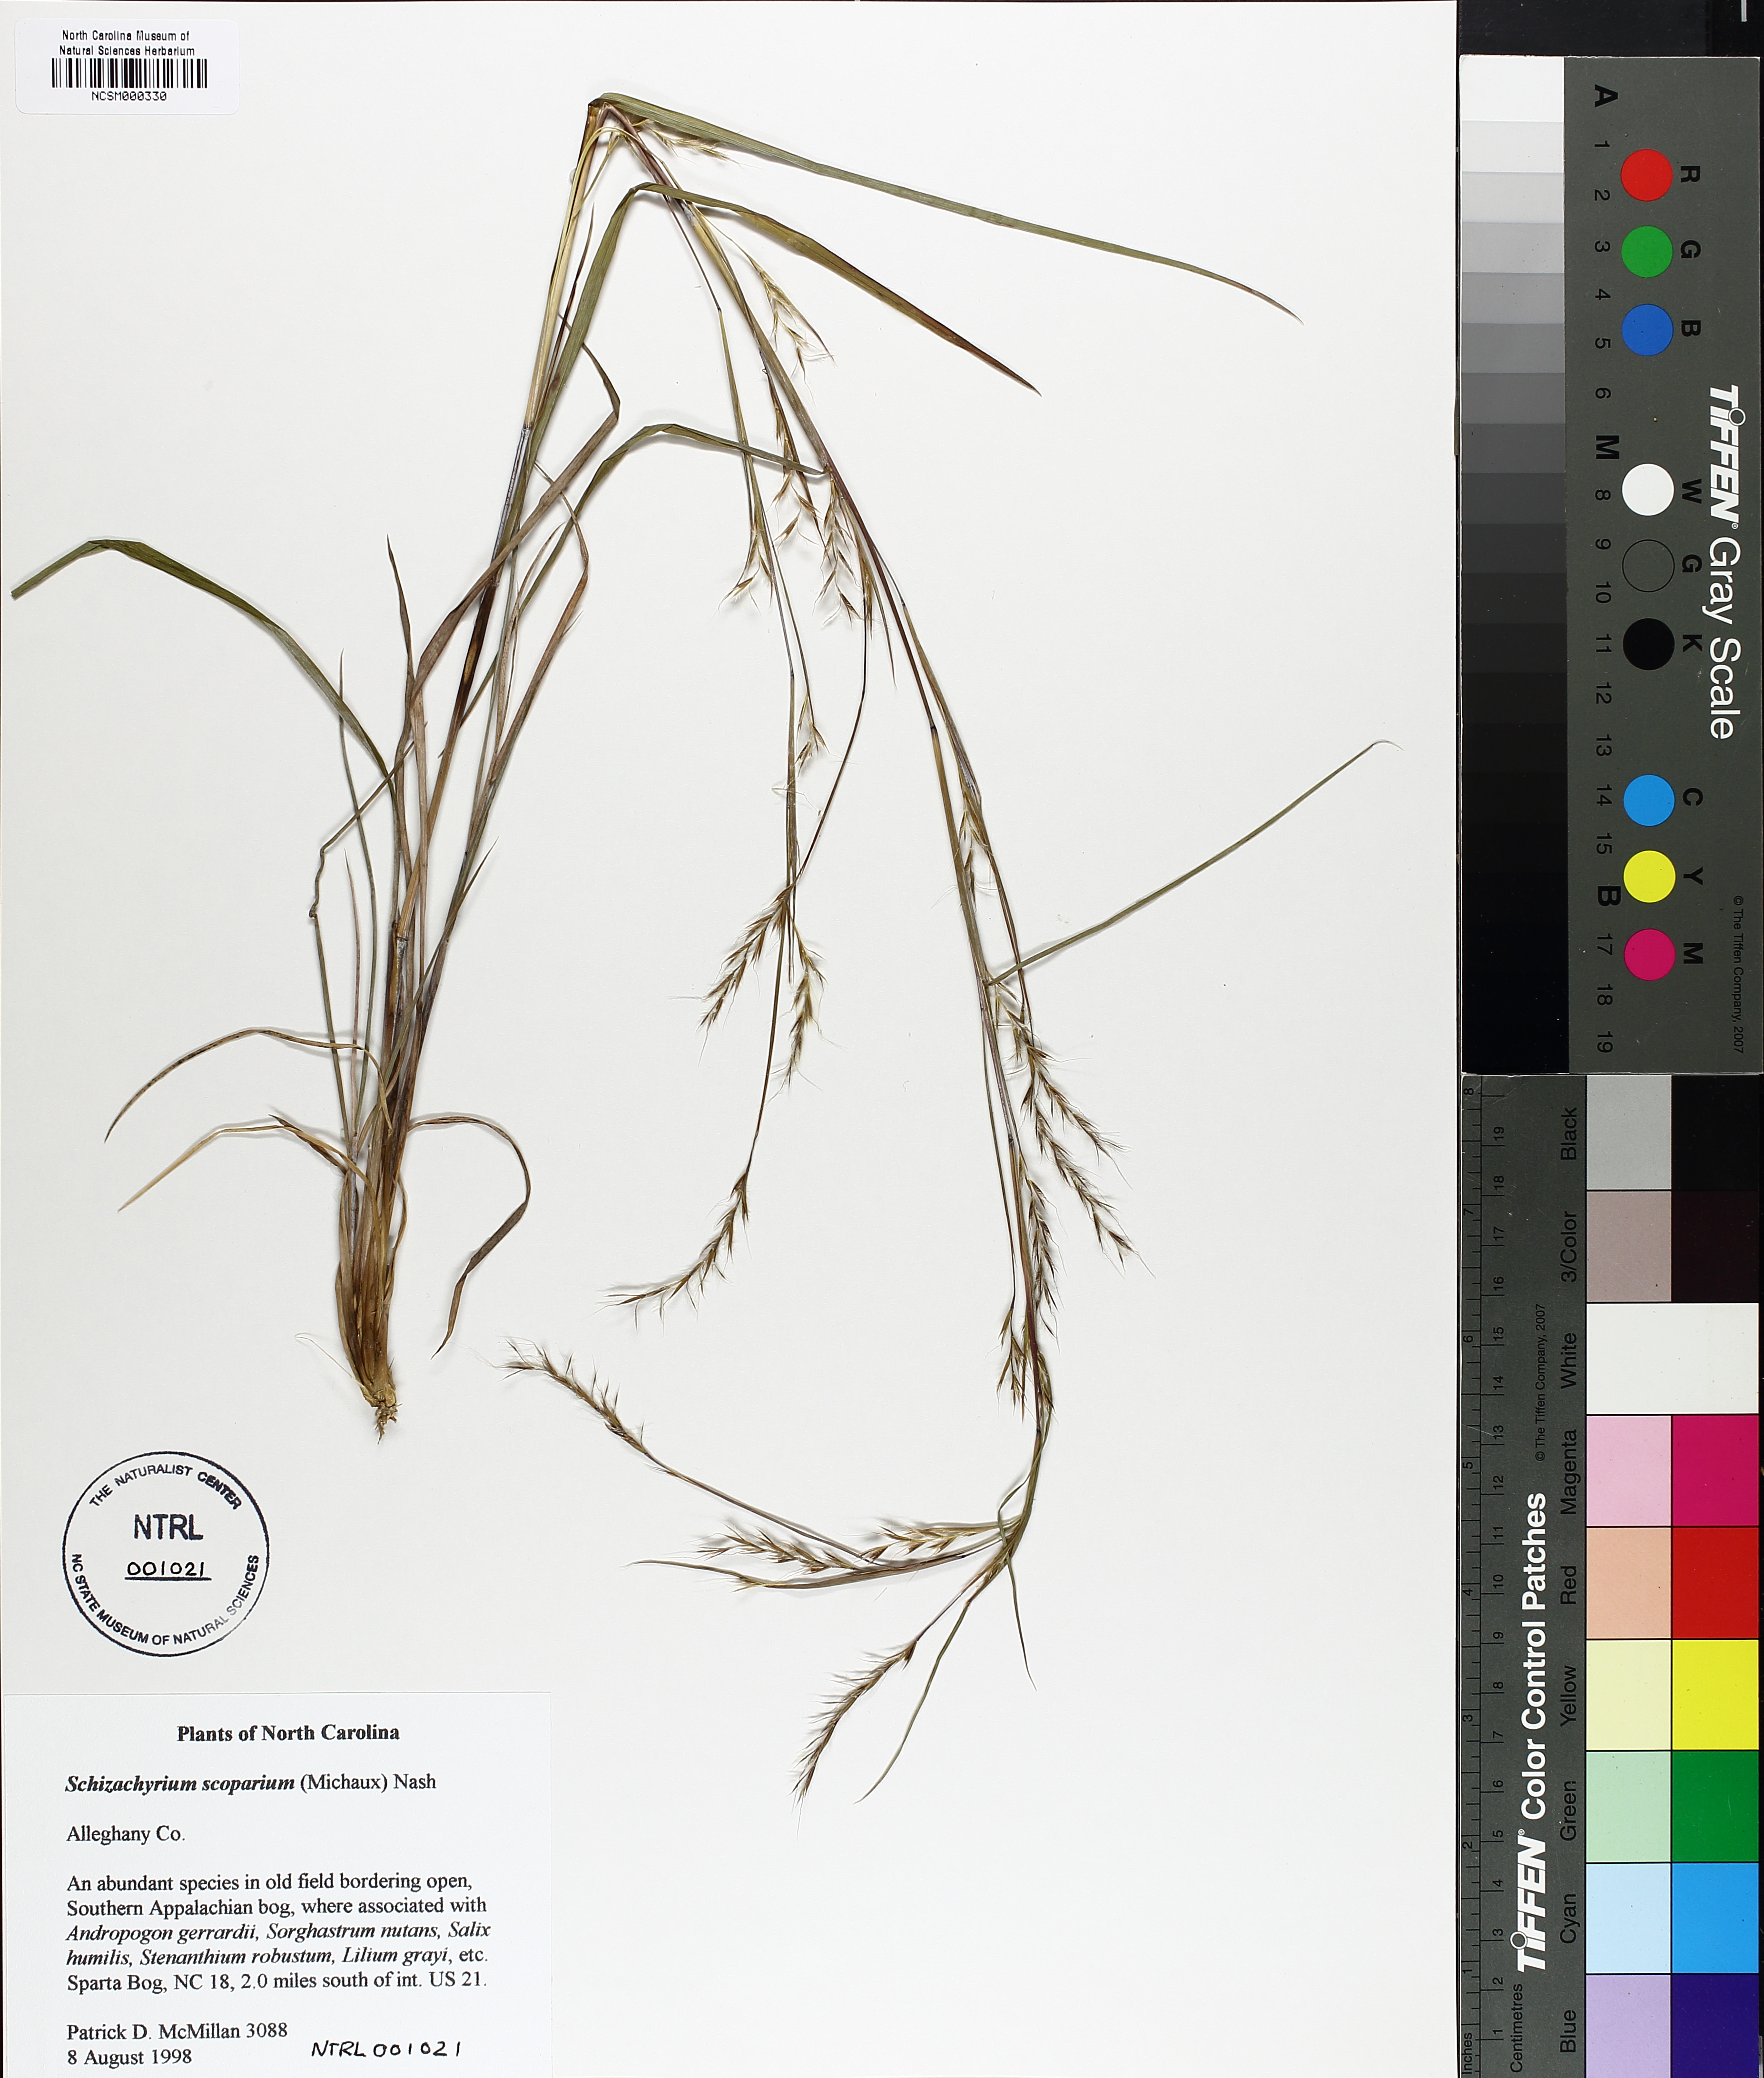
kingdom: Plantae
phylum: Tracheophyta
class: Liliopsida
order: Poales
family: Poaceae
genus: Schizachyrium
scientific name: Schizachyrium scoparium
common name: Little bluestem
